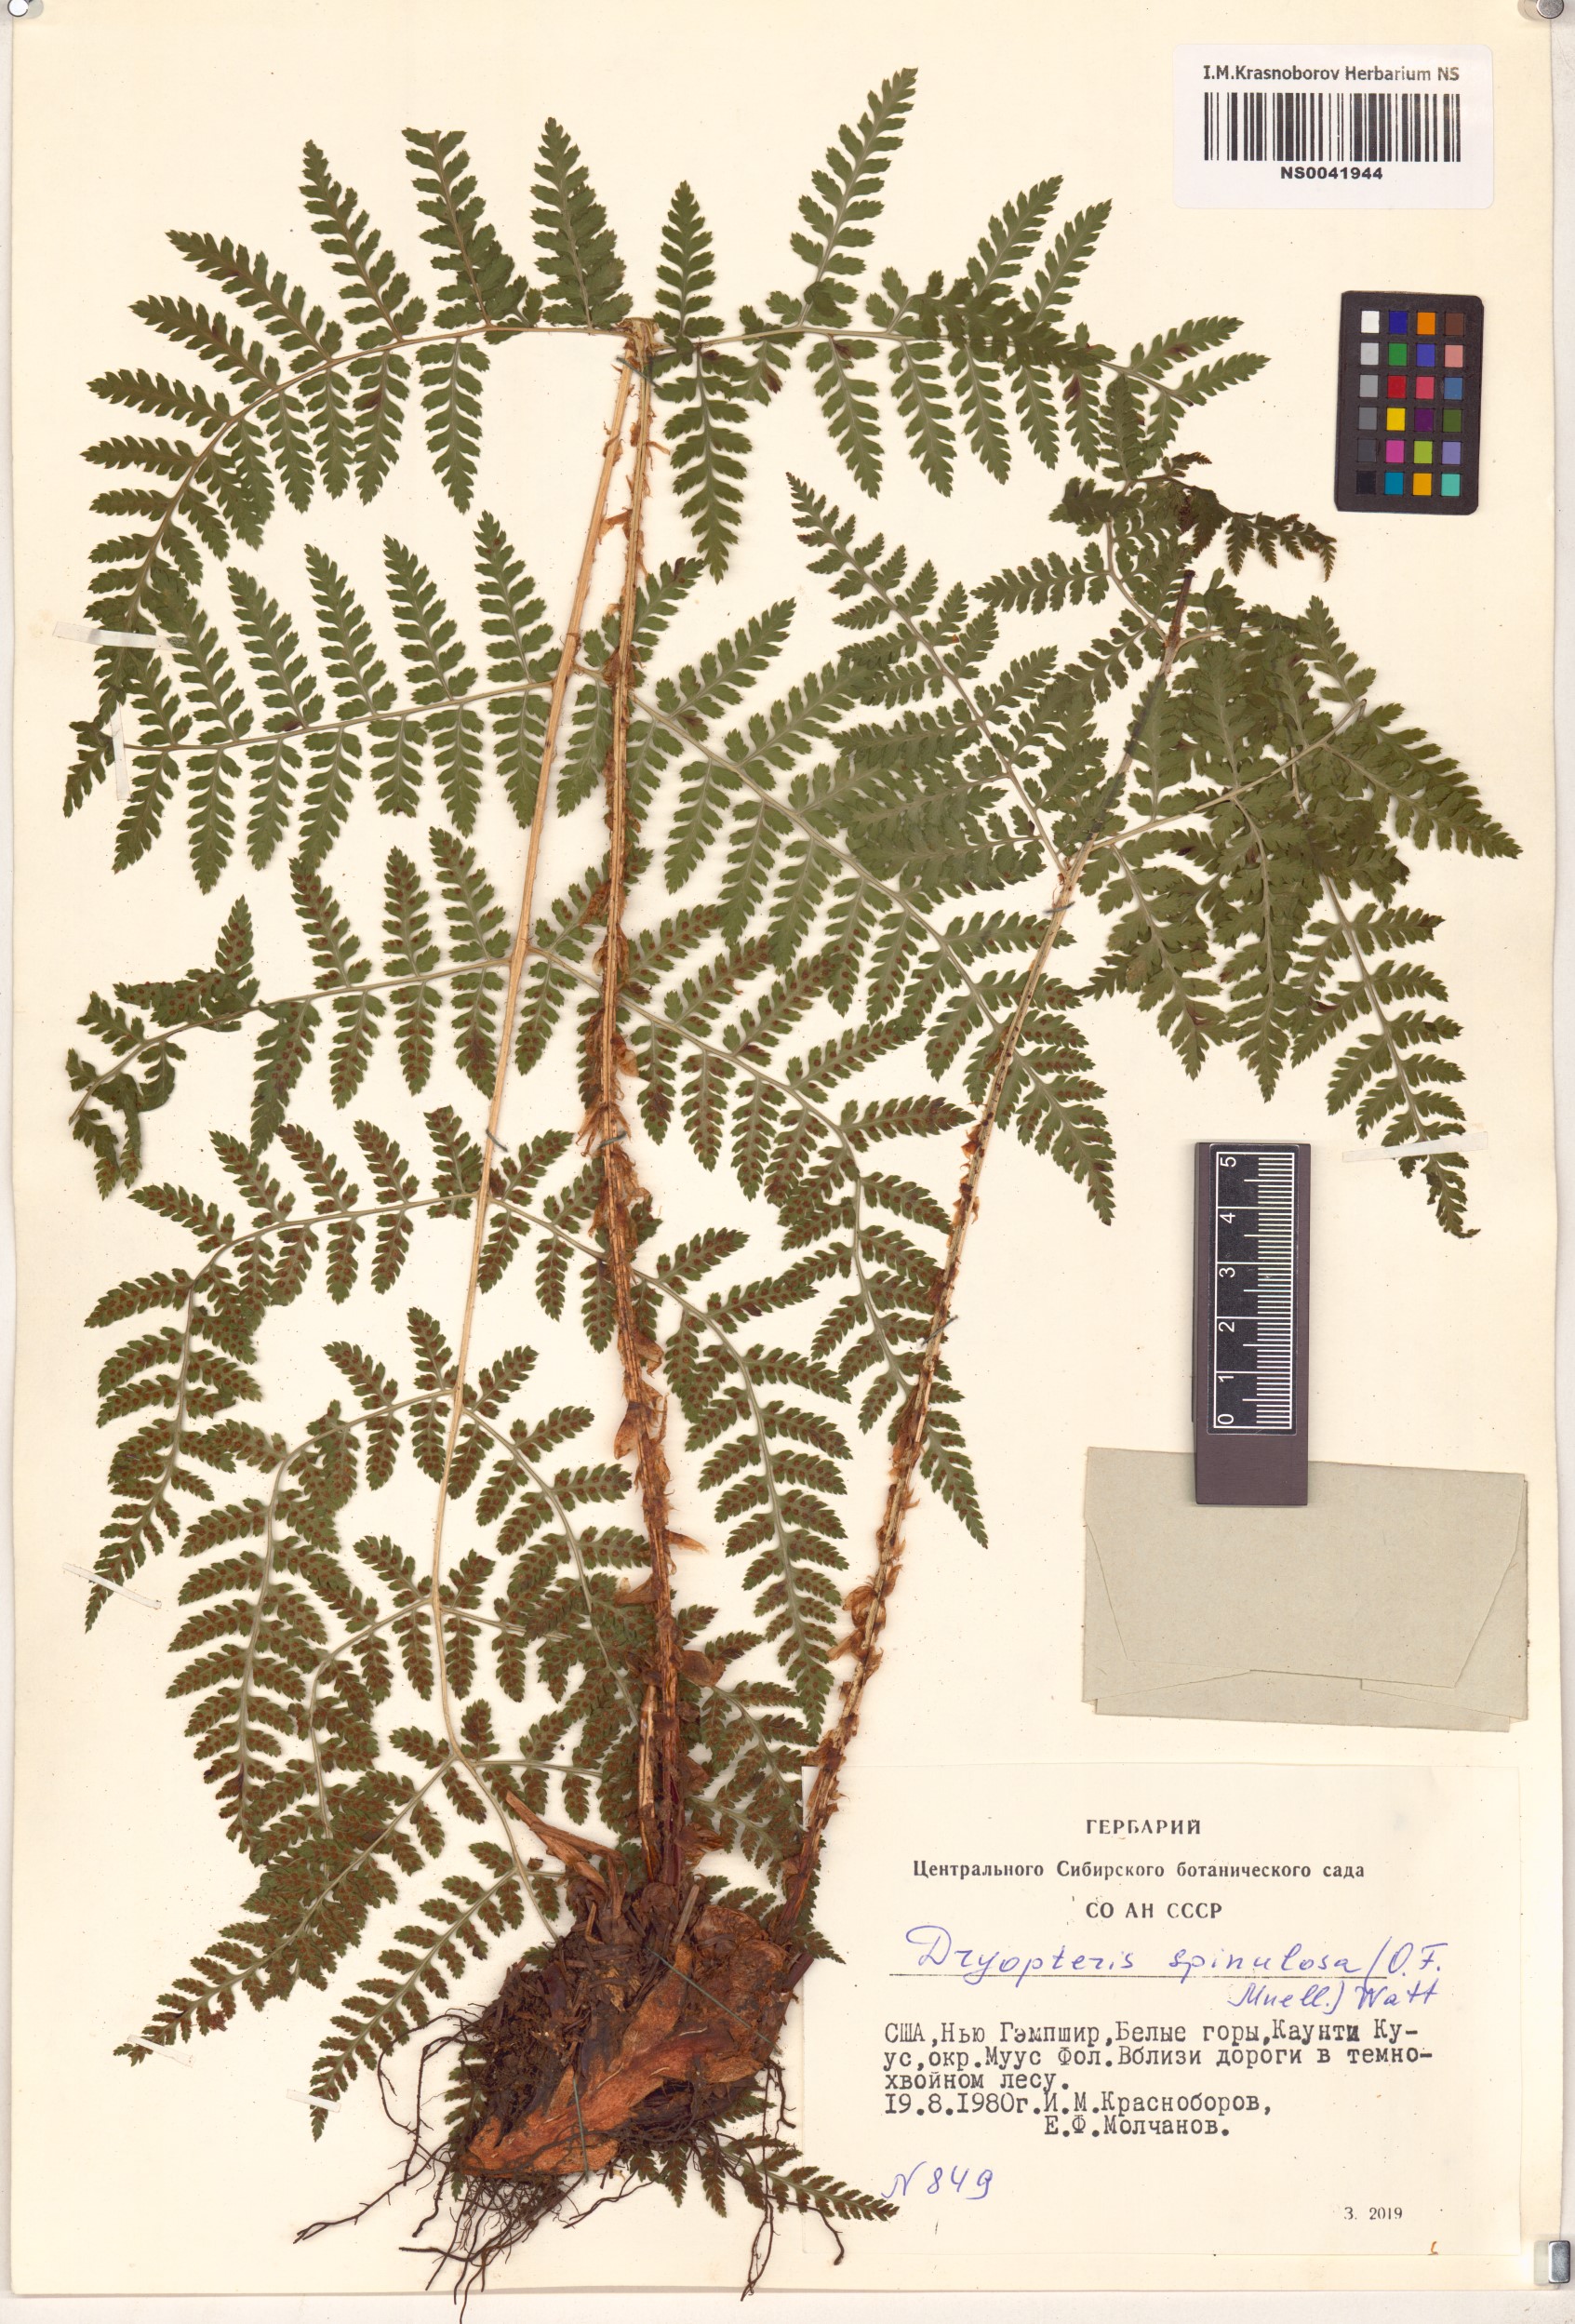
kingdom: Plantae
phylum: Tracheophyta
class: Polypodiopsida
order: Polypodiales
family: Dryopteridaceae
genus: Dryopteris
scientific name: Dryopteris carthusiana
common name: Narrow buckler-fern
